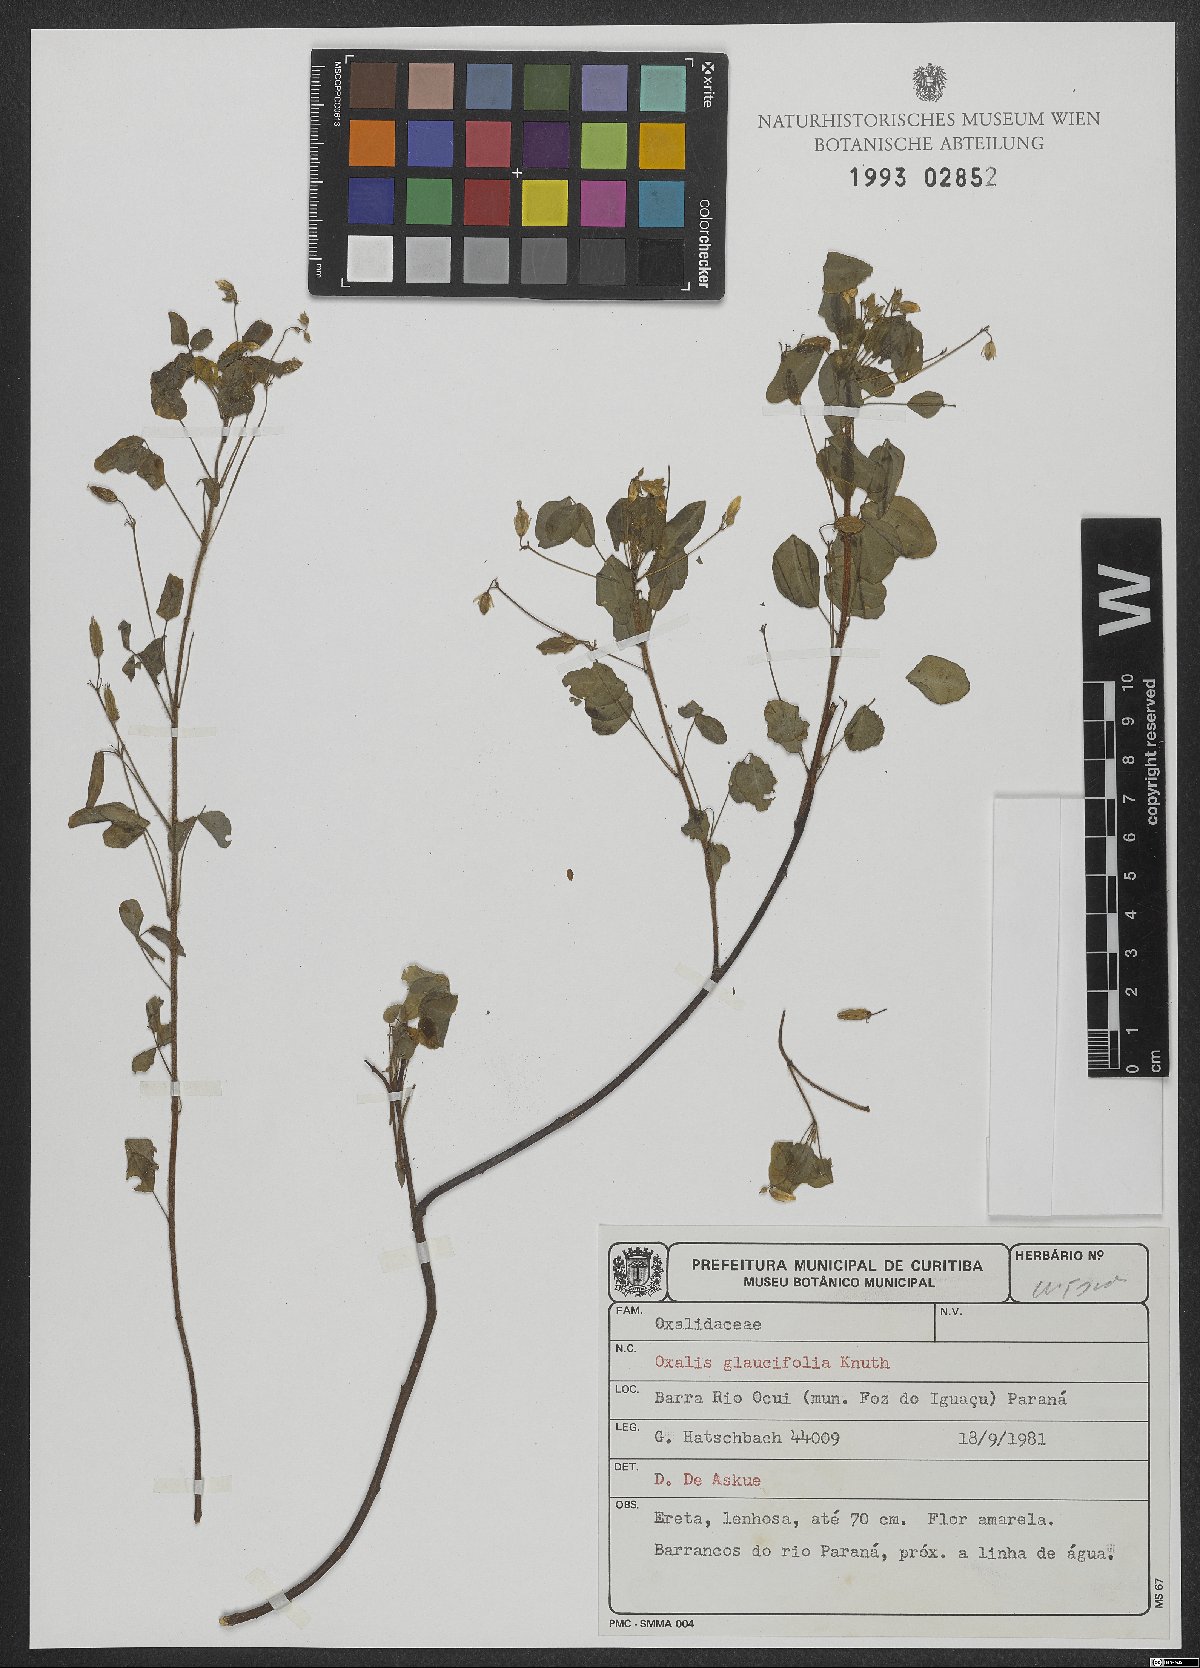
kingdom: Plantae
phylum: Tracheophyta
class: Magnoliopsida
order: Oxalidales
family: Oxalidaceae
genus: Oxalis
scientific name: Oxalis frutescens
